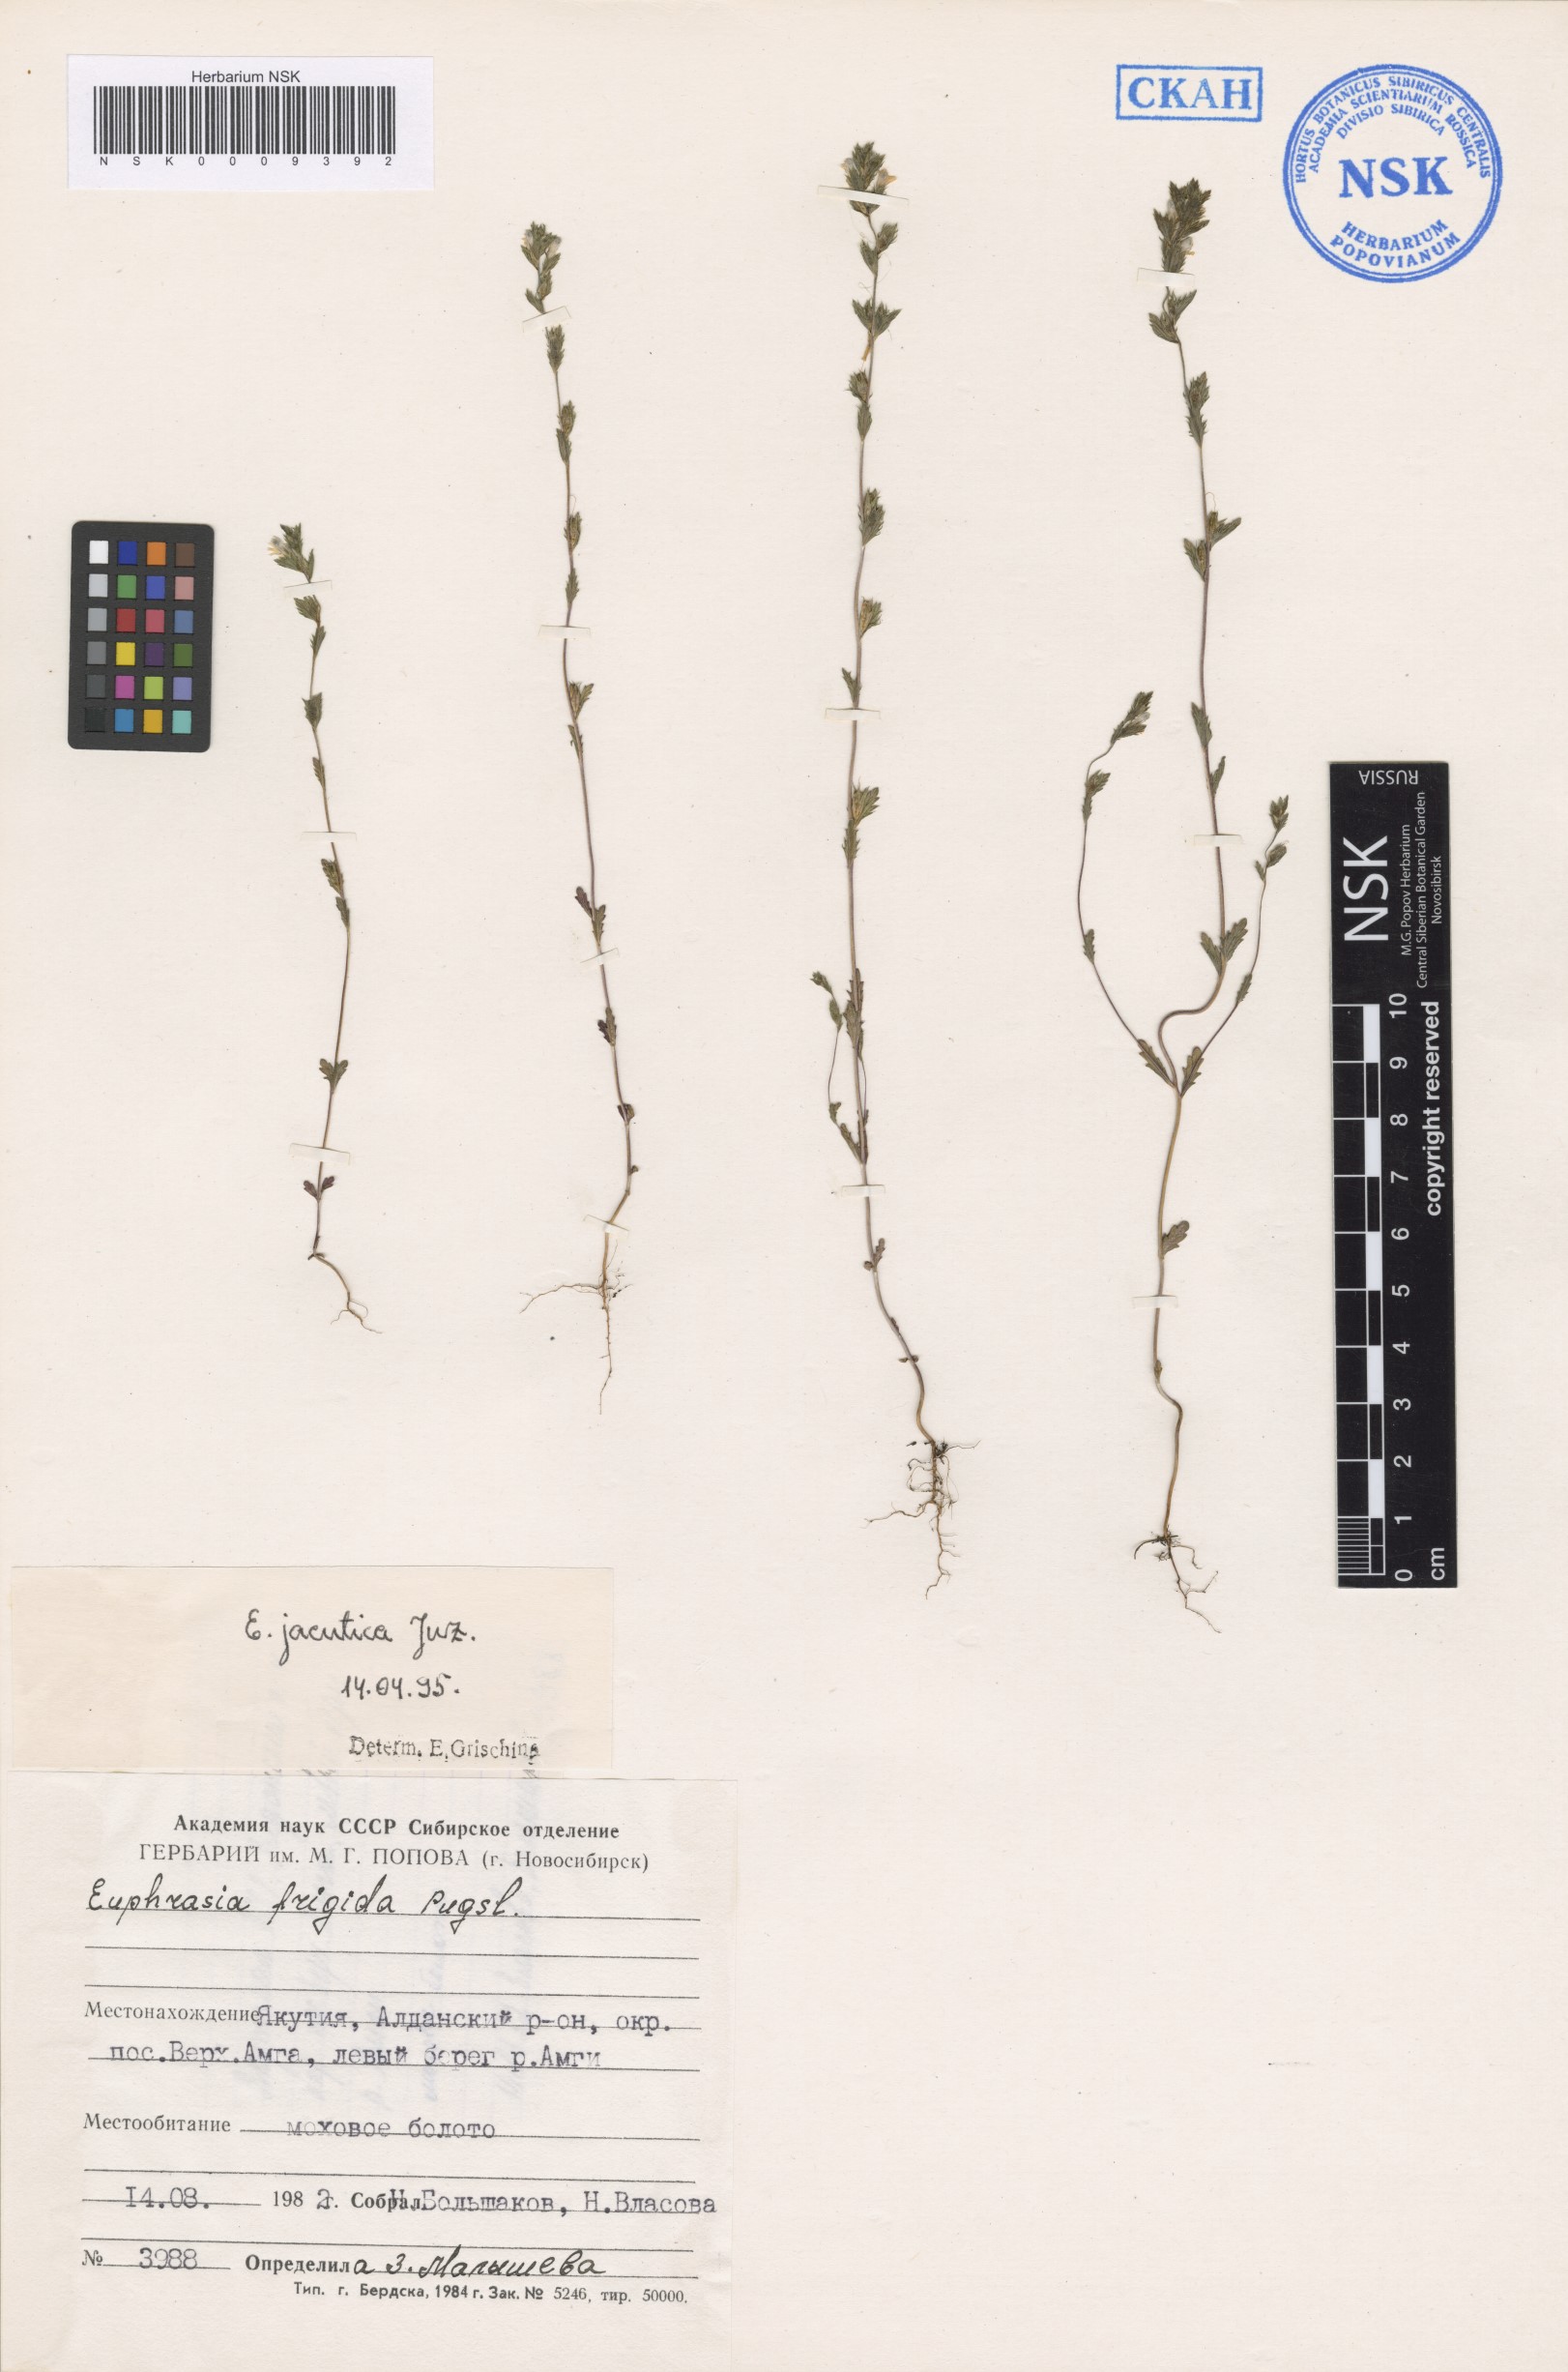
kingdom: Plantae
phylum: Tracheophyta
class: Magnoliopsida
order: Lamiales
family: Orobanchaceae
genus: Euphrasia
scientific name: Euphrasia jacutica
